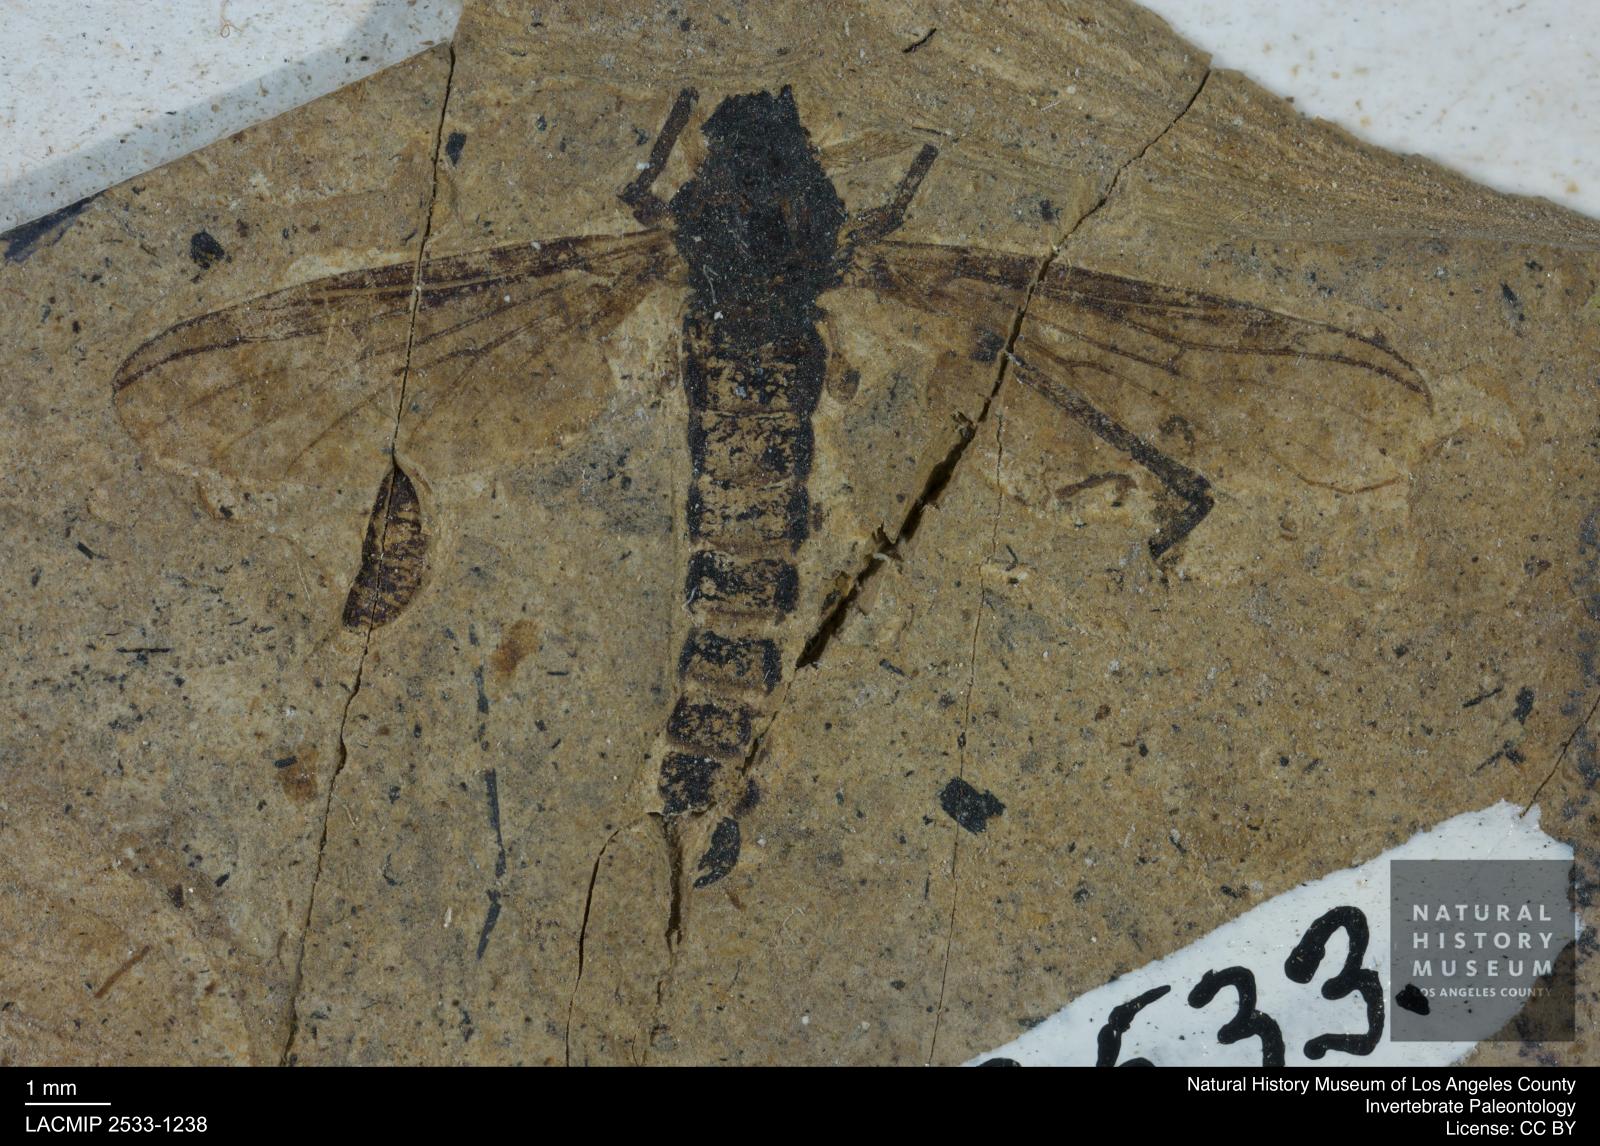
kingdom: Animalia
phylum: Arthropoda
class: Insecta
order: Diptera
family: Bibionidae
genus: Plecia
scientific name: Plecia
